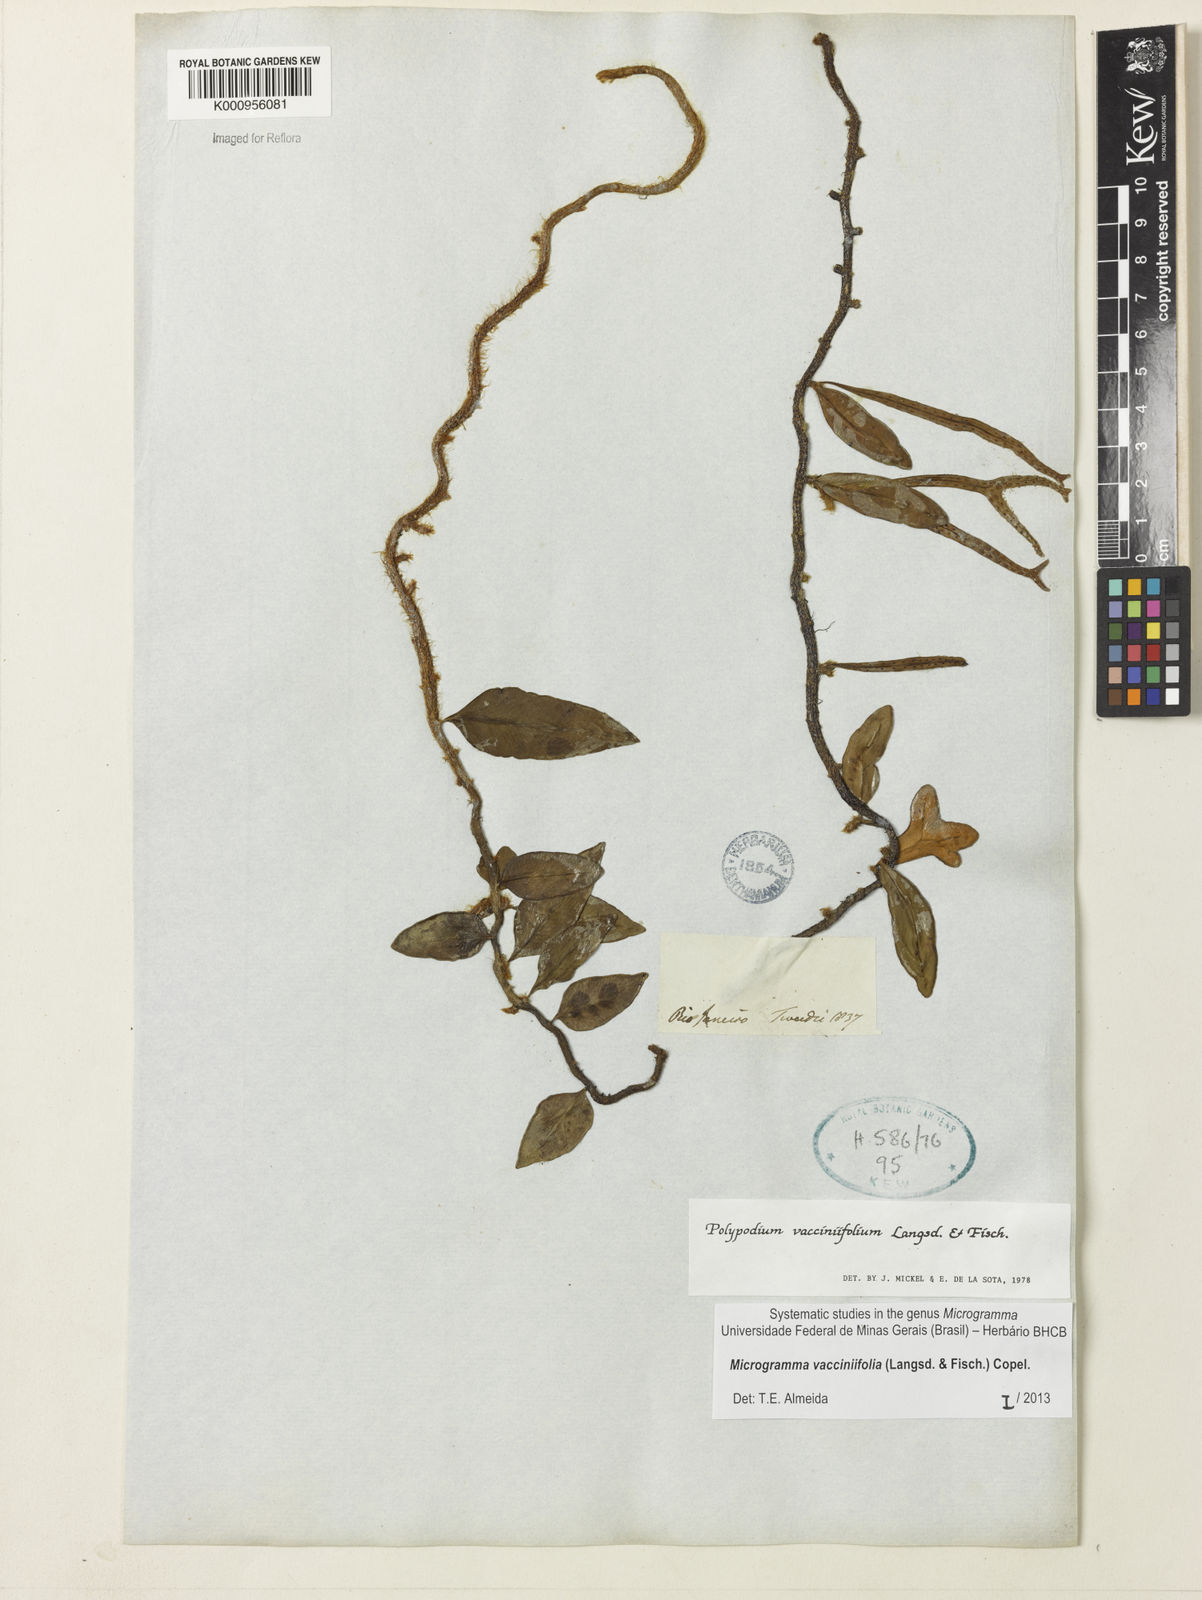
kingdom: Plantae
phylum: Tracheophyta
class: Polypodiopsida
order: Polypodiales
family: Polypodiaceae
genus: Phlebodium
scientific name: Phlebodium
